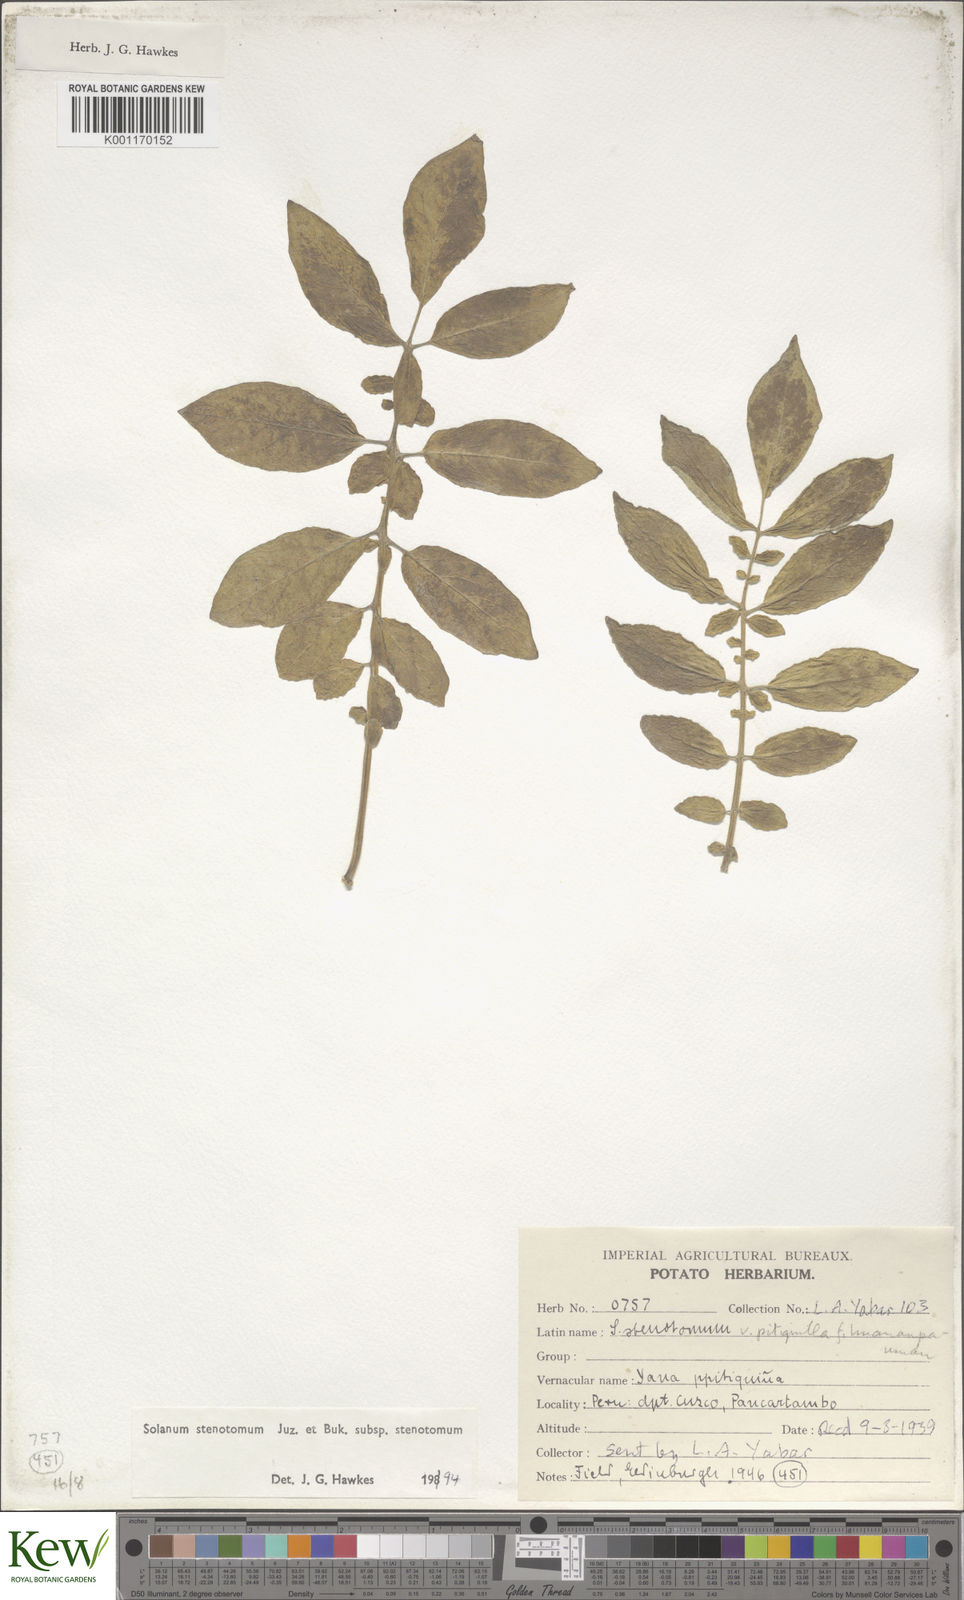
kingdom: Plantae
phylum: Tracheophyta
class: Magnoliopsida
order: Solanales
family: Solanaceae
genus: Solanum
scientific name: Solanum tuberosum
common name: Potato
